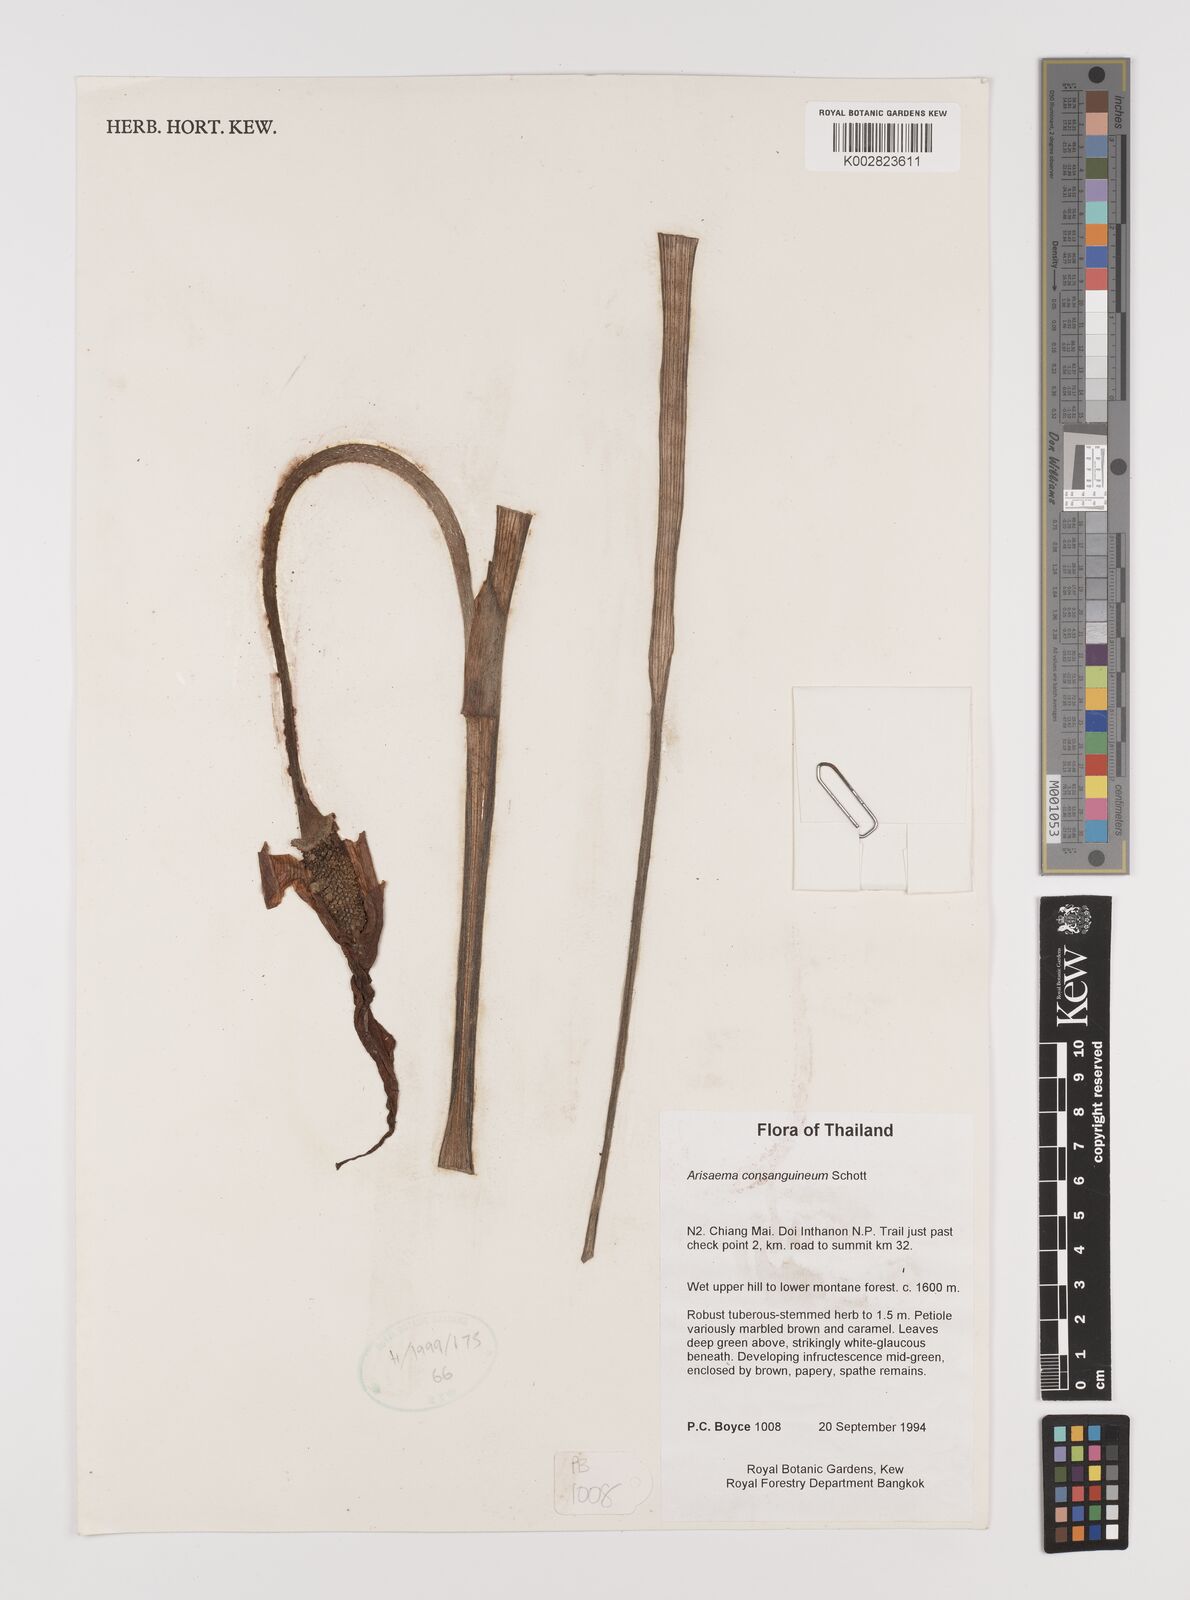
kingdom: Plantae
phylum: Tracheophyta
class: Liliopsida
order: Alismatales
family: Araceae
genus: Arisaema
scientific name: Arisaema consanguineum
